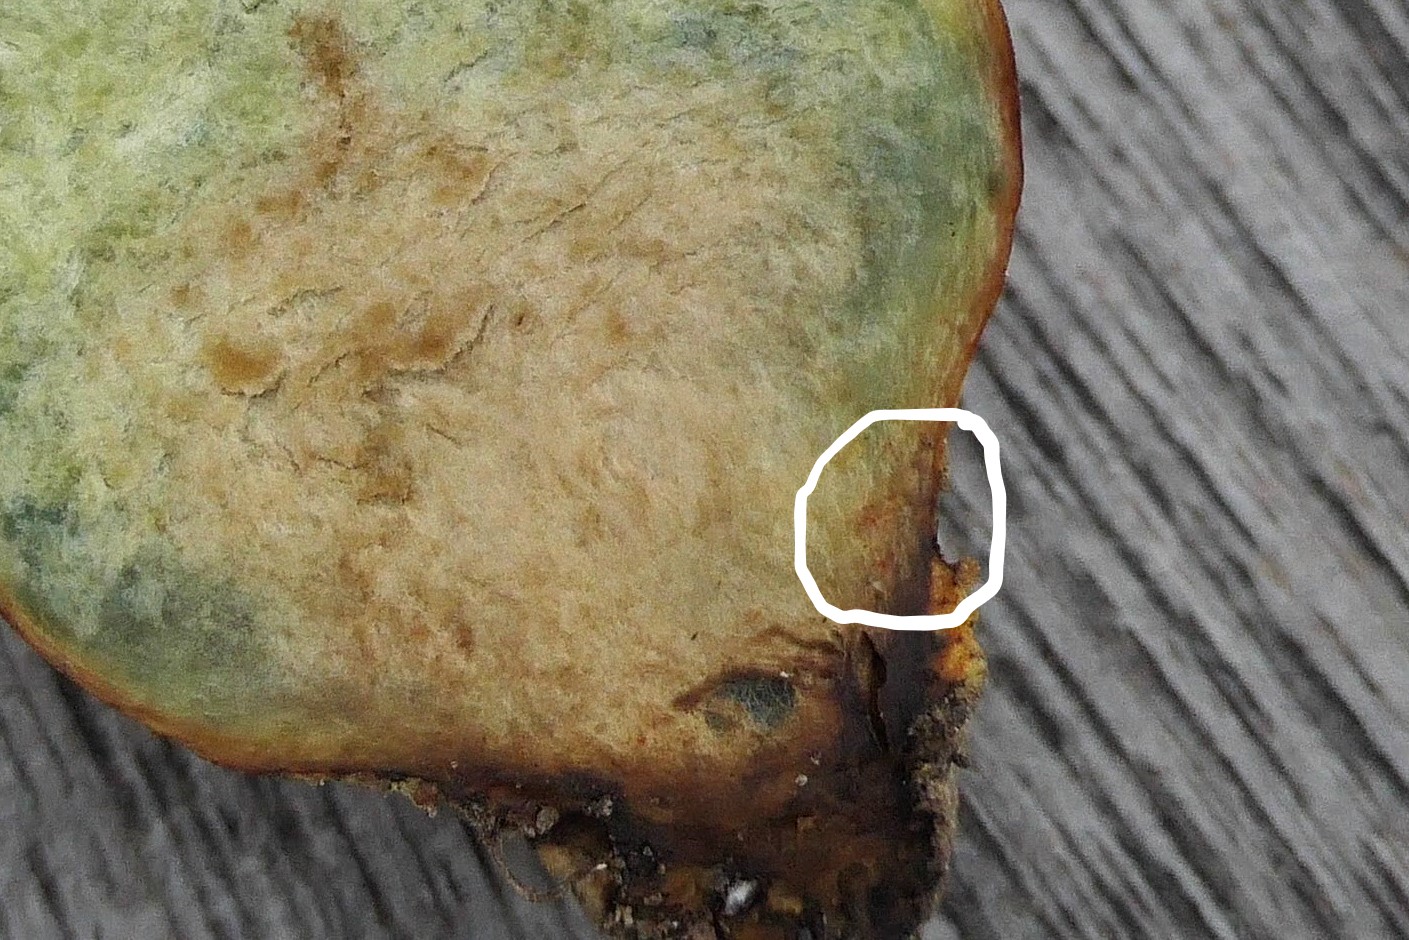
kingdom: Fungi
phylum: Basidiomycota
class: Agaricomycetes
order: Boletales
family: Boletaceae
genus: Hortiboletus
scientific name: Hortiboletus rubellus
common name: blodrød rørhat
